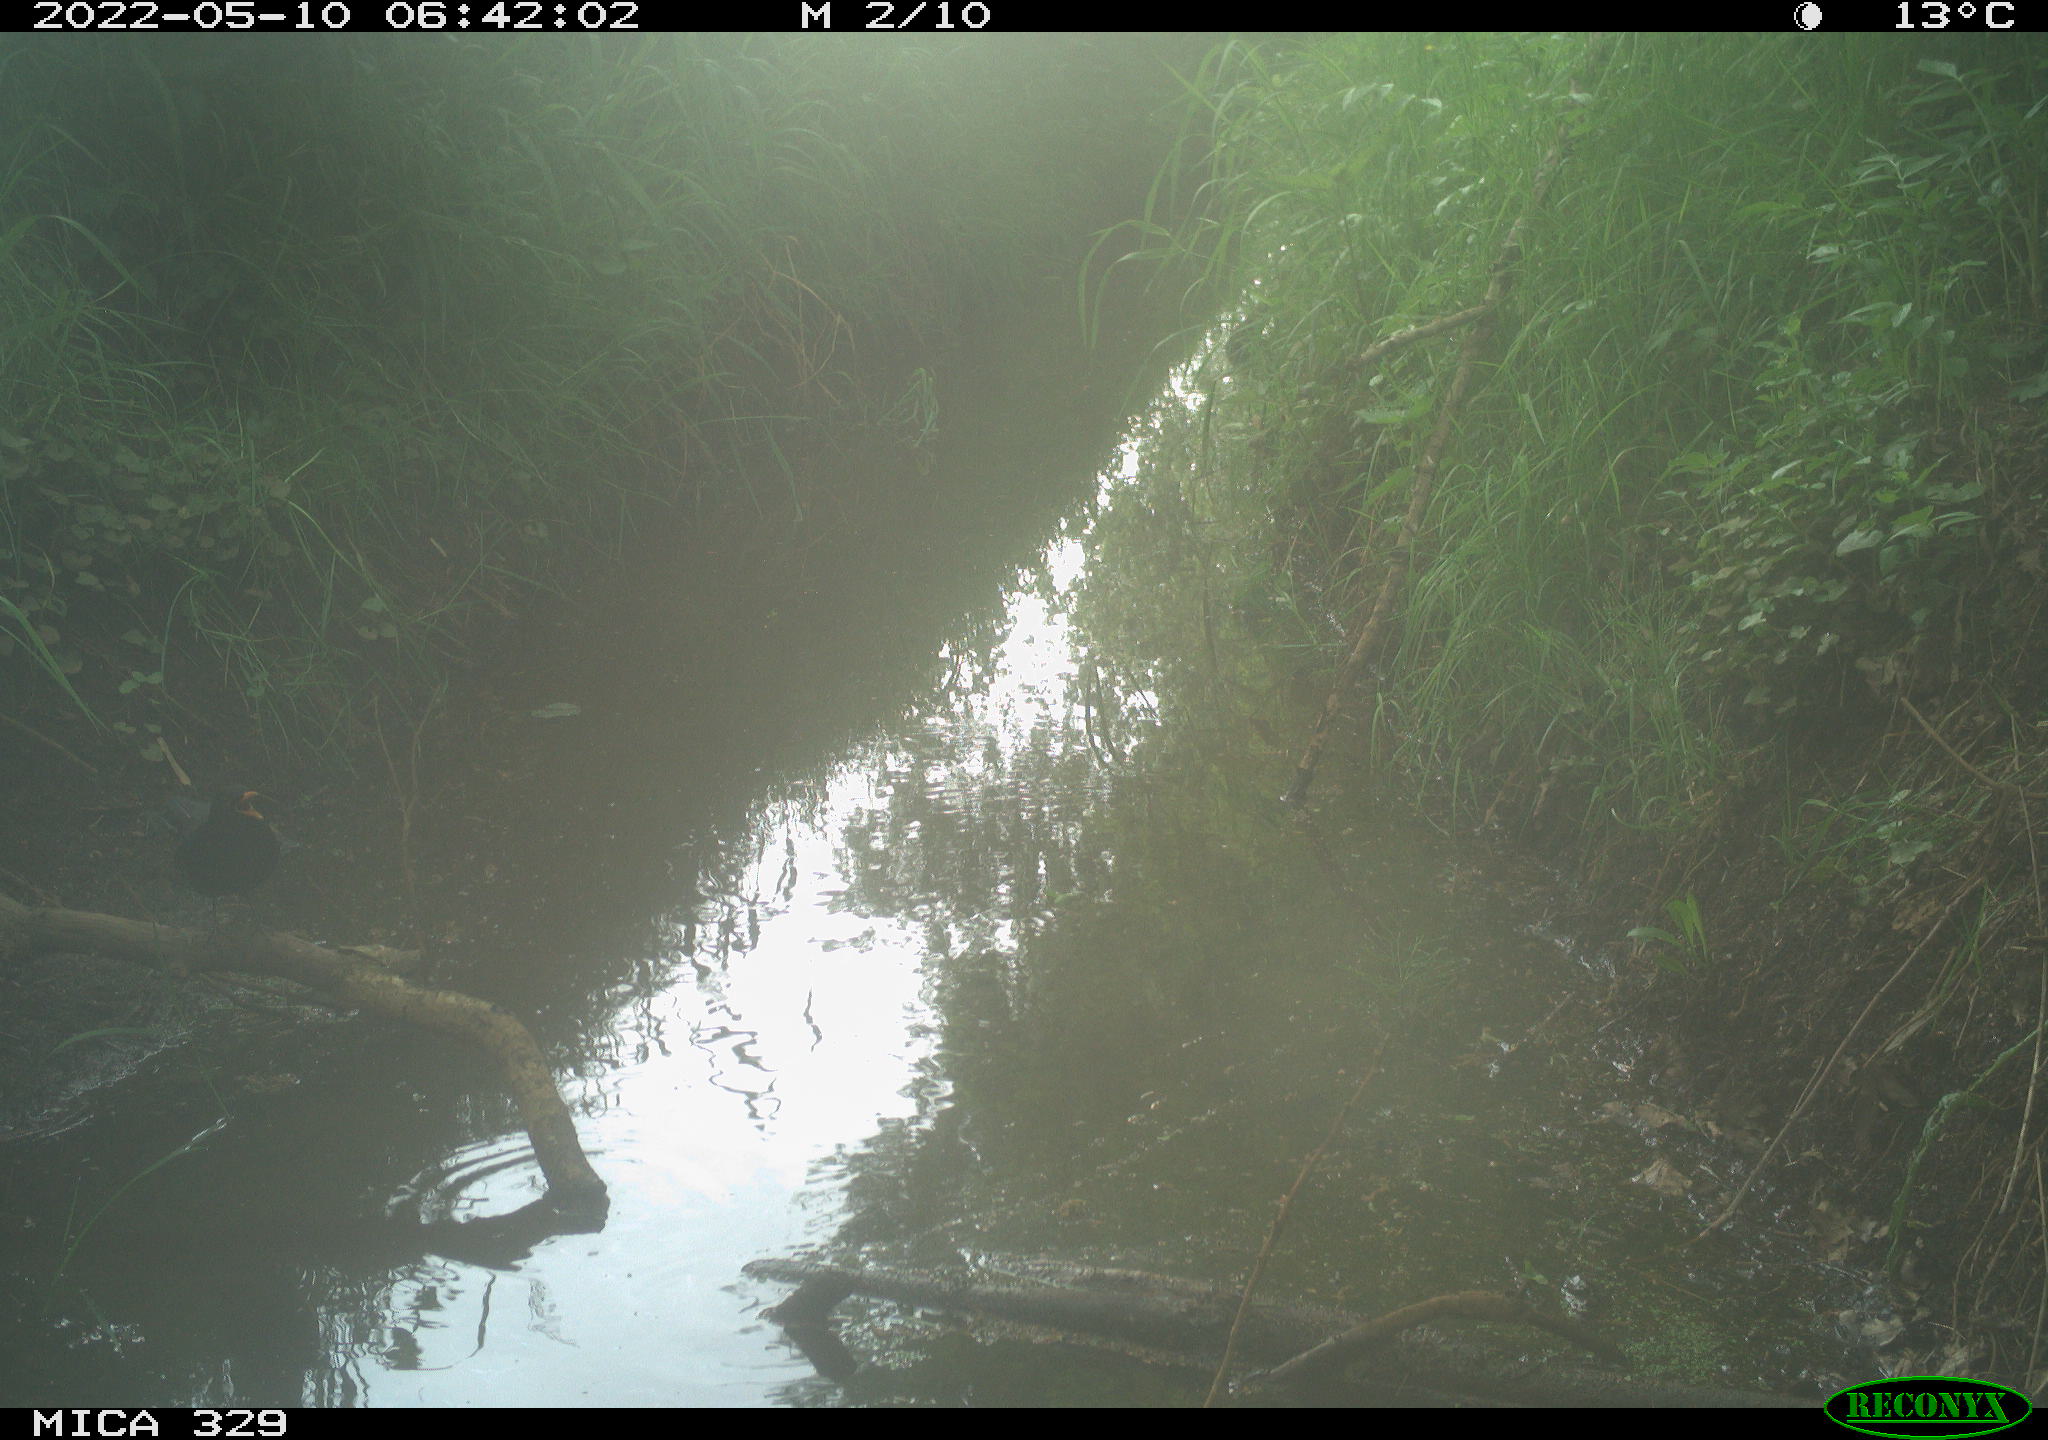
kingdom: Animalia
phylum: Chordata
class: Aves
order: Passeriformes
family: Turdidae
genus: Turdus
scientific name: Turdus merula
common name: Common blackbird
